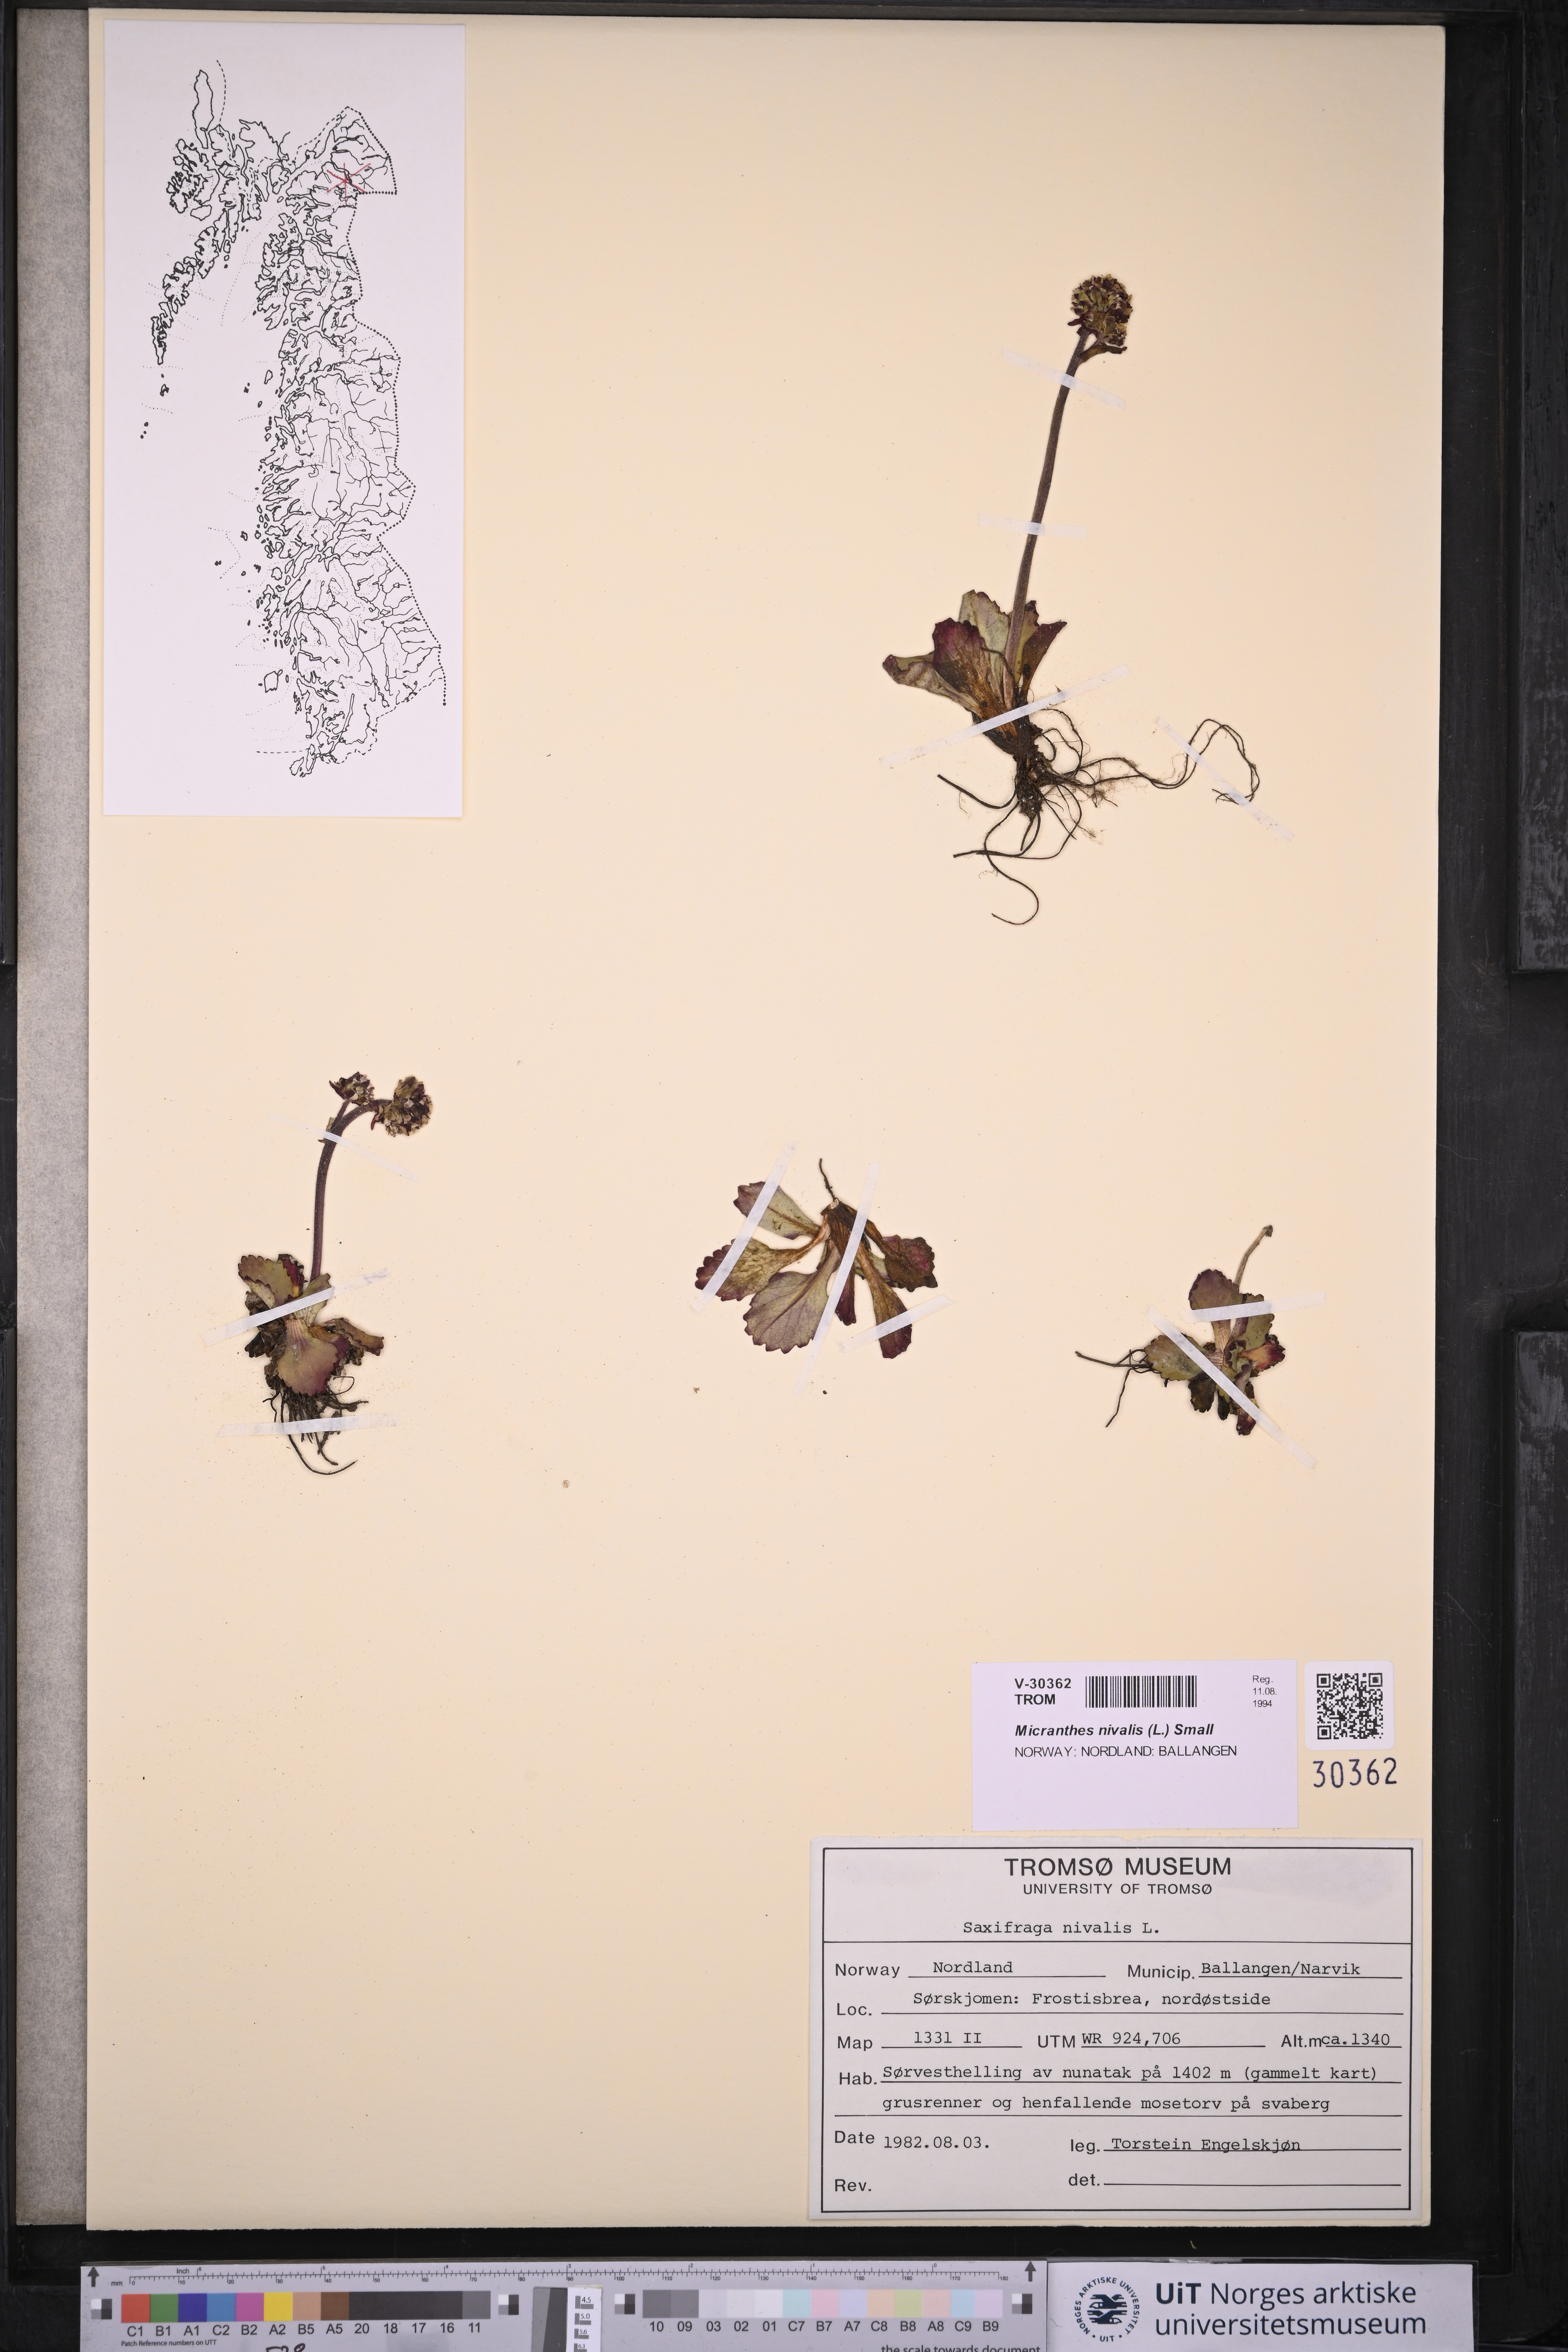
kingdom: Plantae
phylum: Tracheophyta
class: Magnoliopsida
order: Saxifragales
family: Saxifragaceae
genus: Micranthes
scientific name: Micranthes nivalis
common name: Alpine saxifrage
